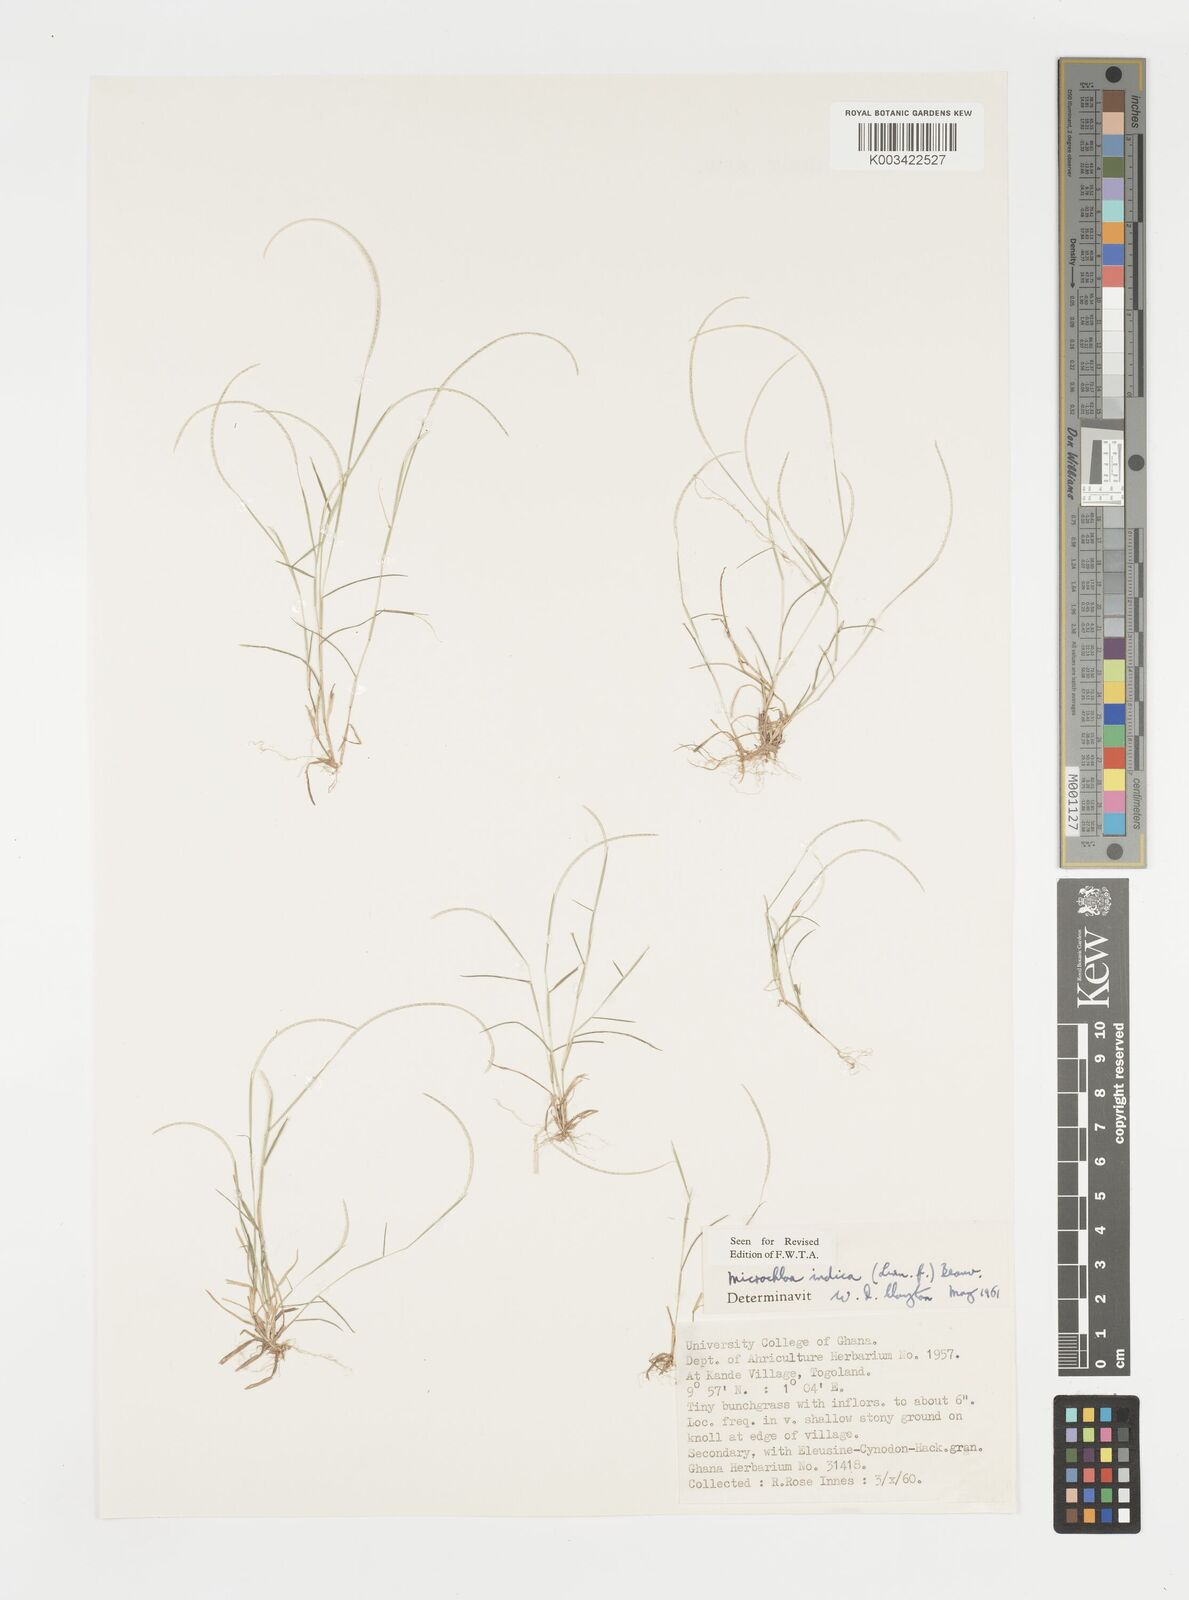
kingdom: Plantae
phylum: Tracheophyta
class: Liliopsida
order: Poales
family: Poaceae
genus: Microchloa
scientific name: Microchloa indica
